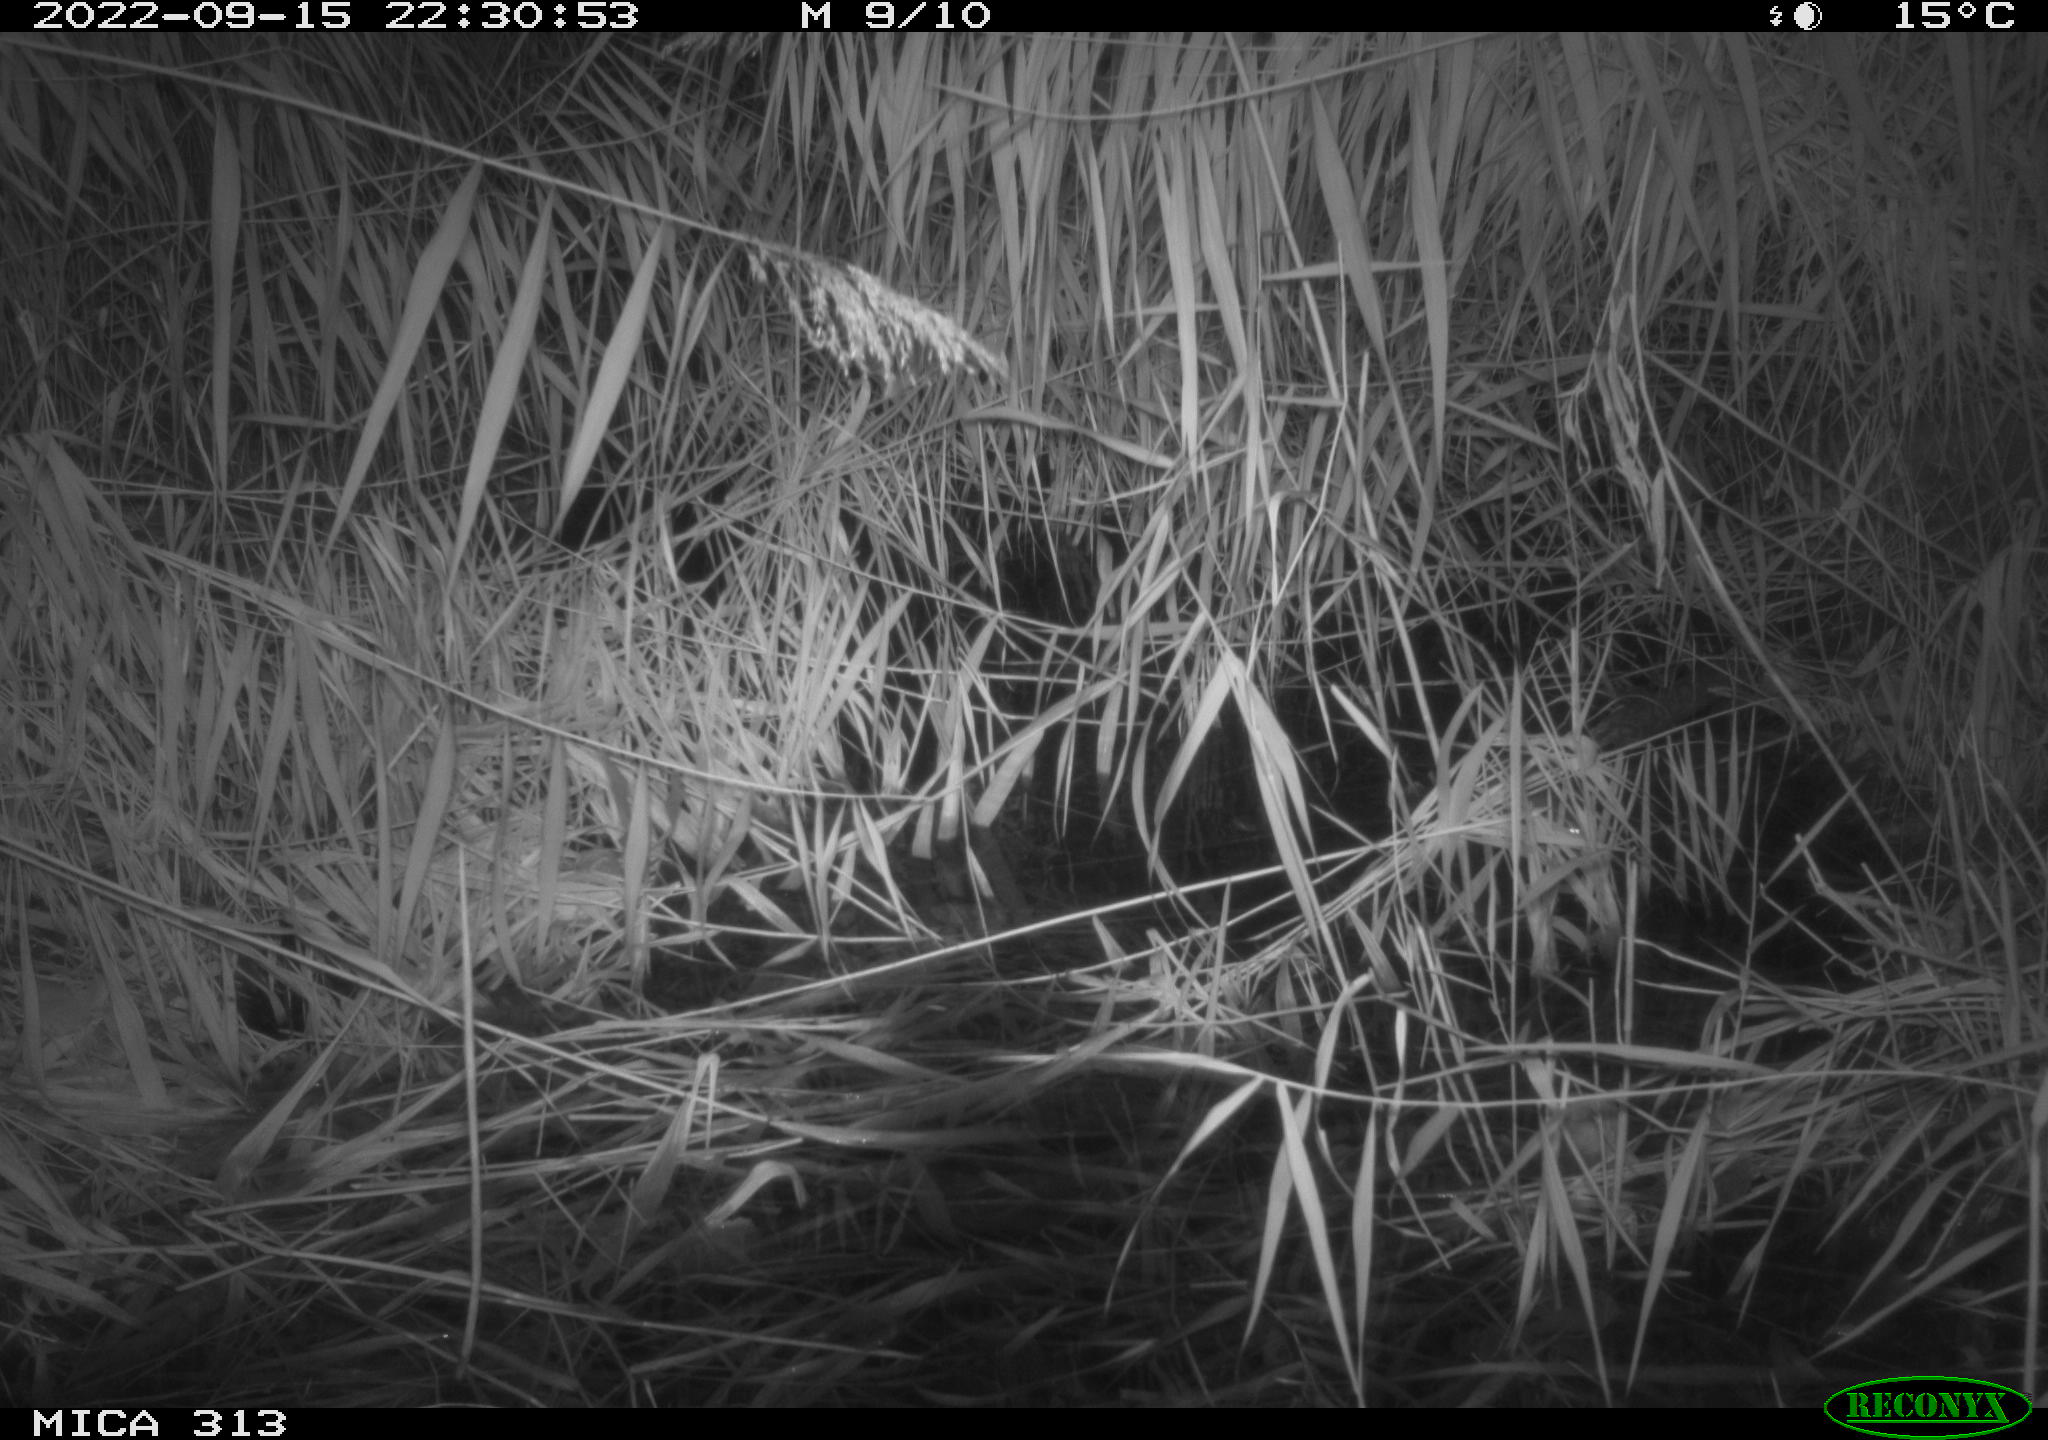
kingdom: Animalia
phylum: Chordata
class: Mammalia
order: Rodentia
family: Muridae
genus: Rattus
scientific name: Rattus norvegicus
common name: Brown rat
